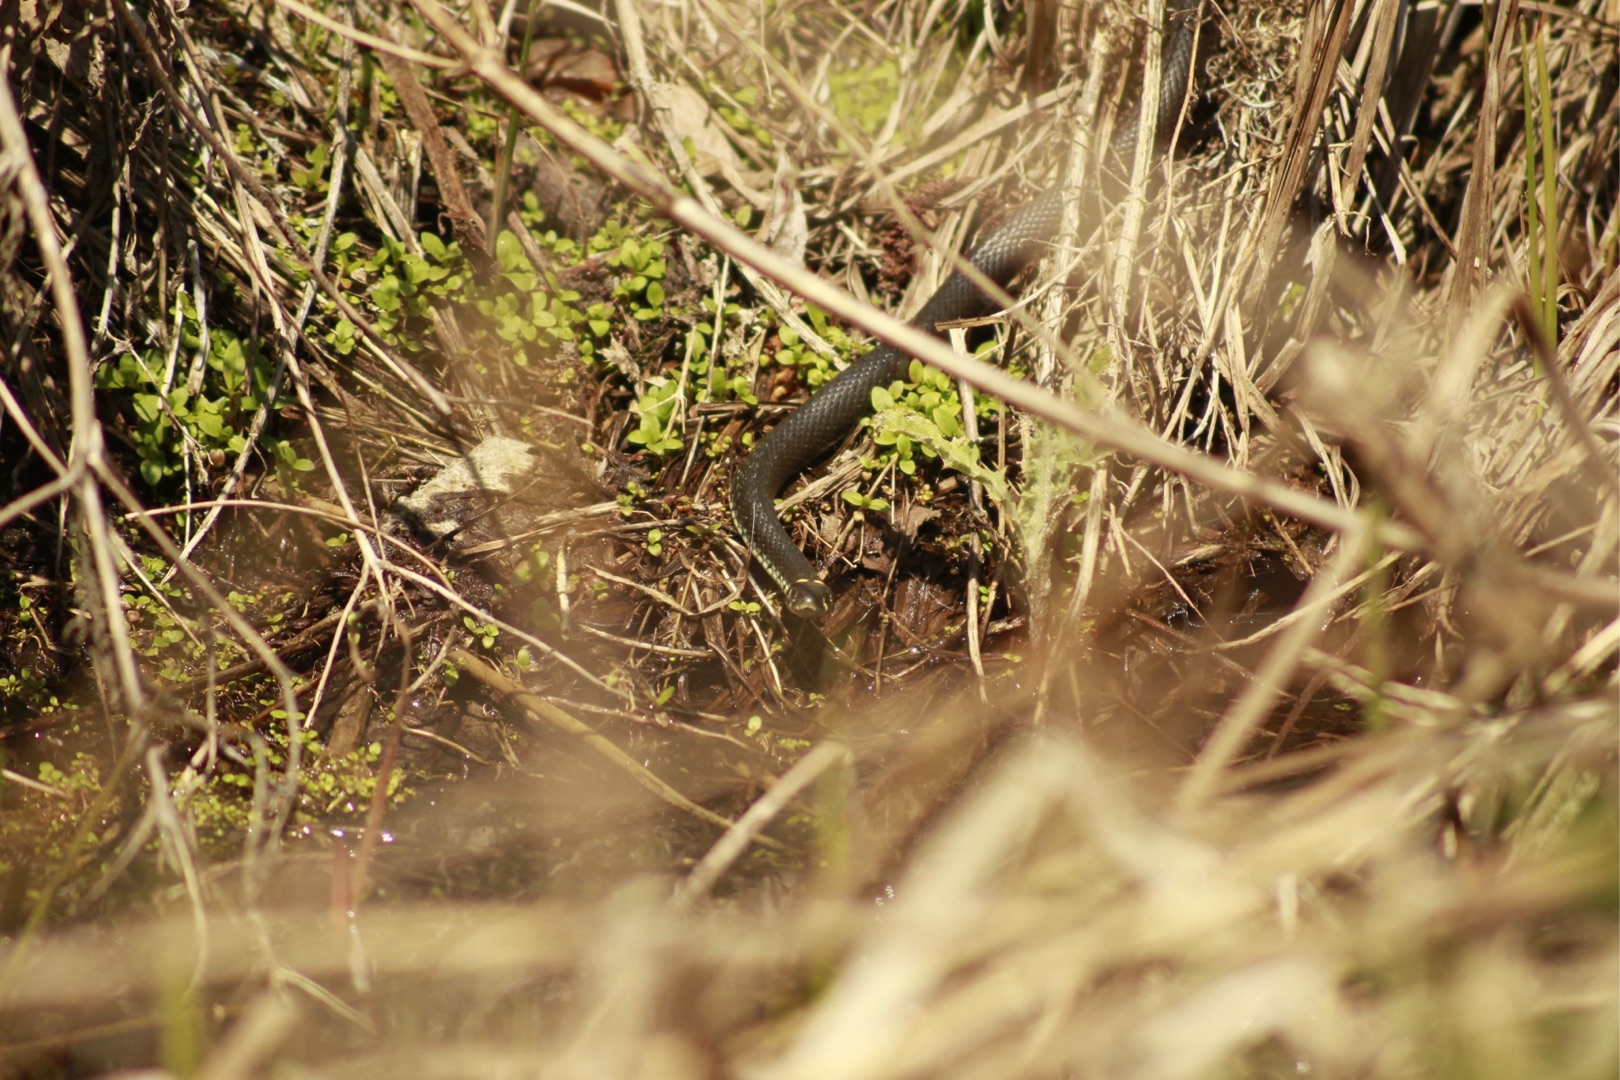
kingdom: Animalia
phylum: Chordata
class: Squamata
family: Colubridae
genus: Natrix
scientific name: Natrix natrix
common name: Snog
